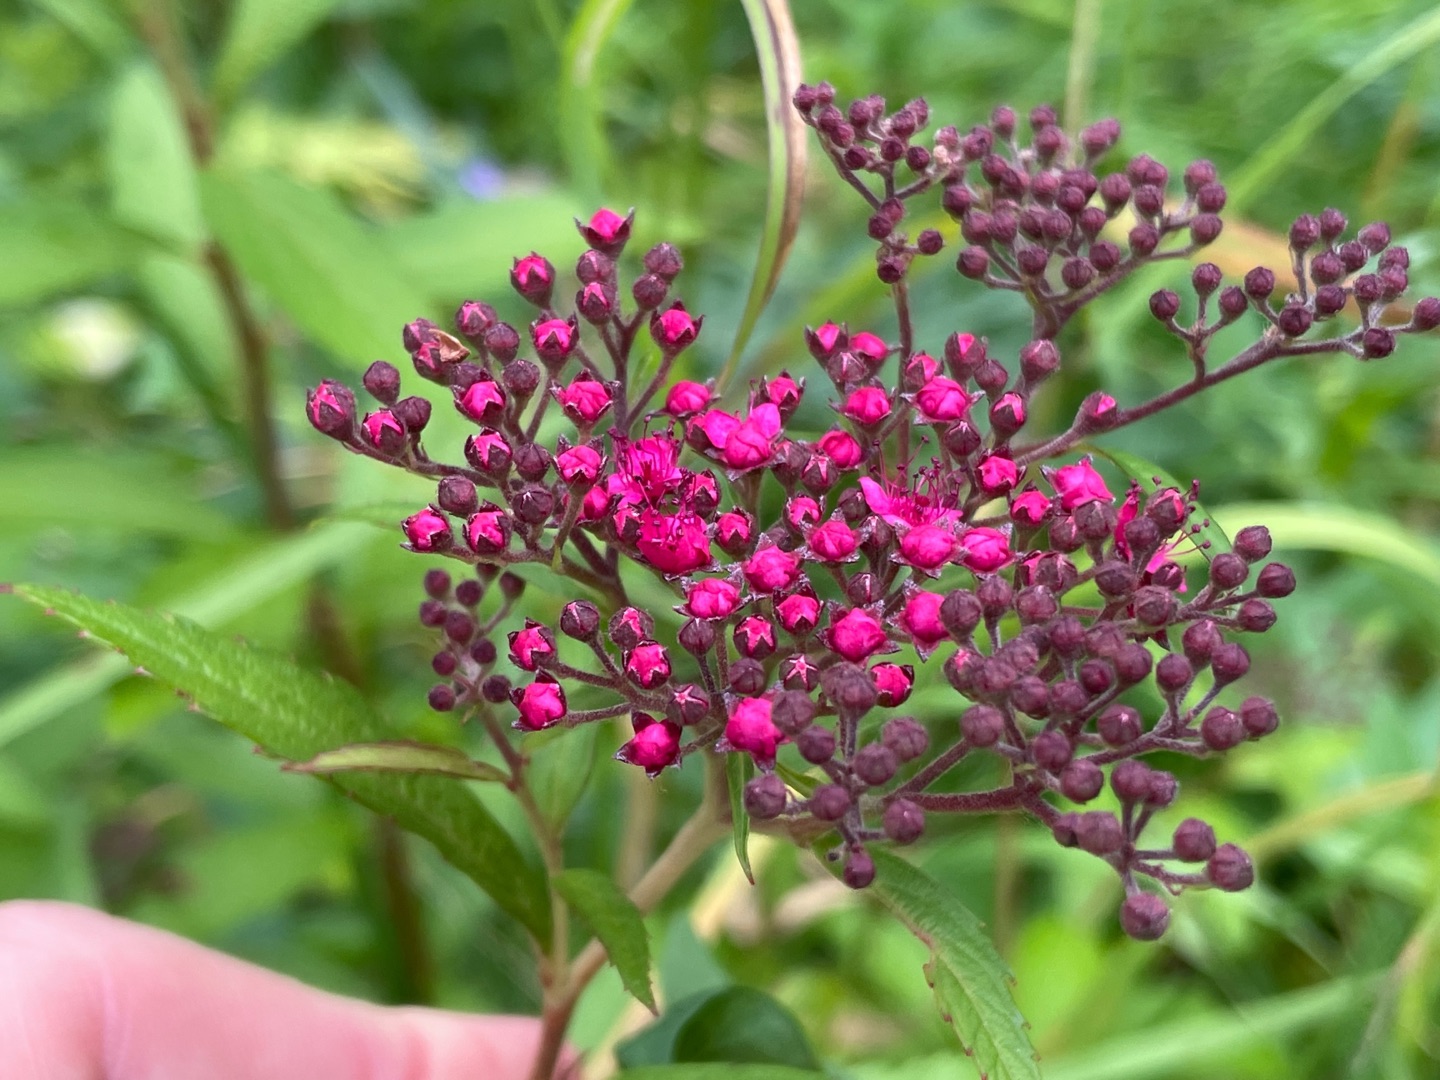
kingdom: Plantae
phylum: Tracheophyta
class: Magnoliopsida
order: Rosales
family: Rosaceae
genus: Spiraea
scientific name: Spiraea japonica
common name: Rosen-spiræa
